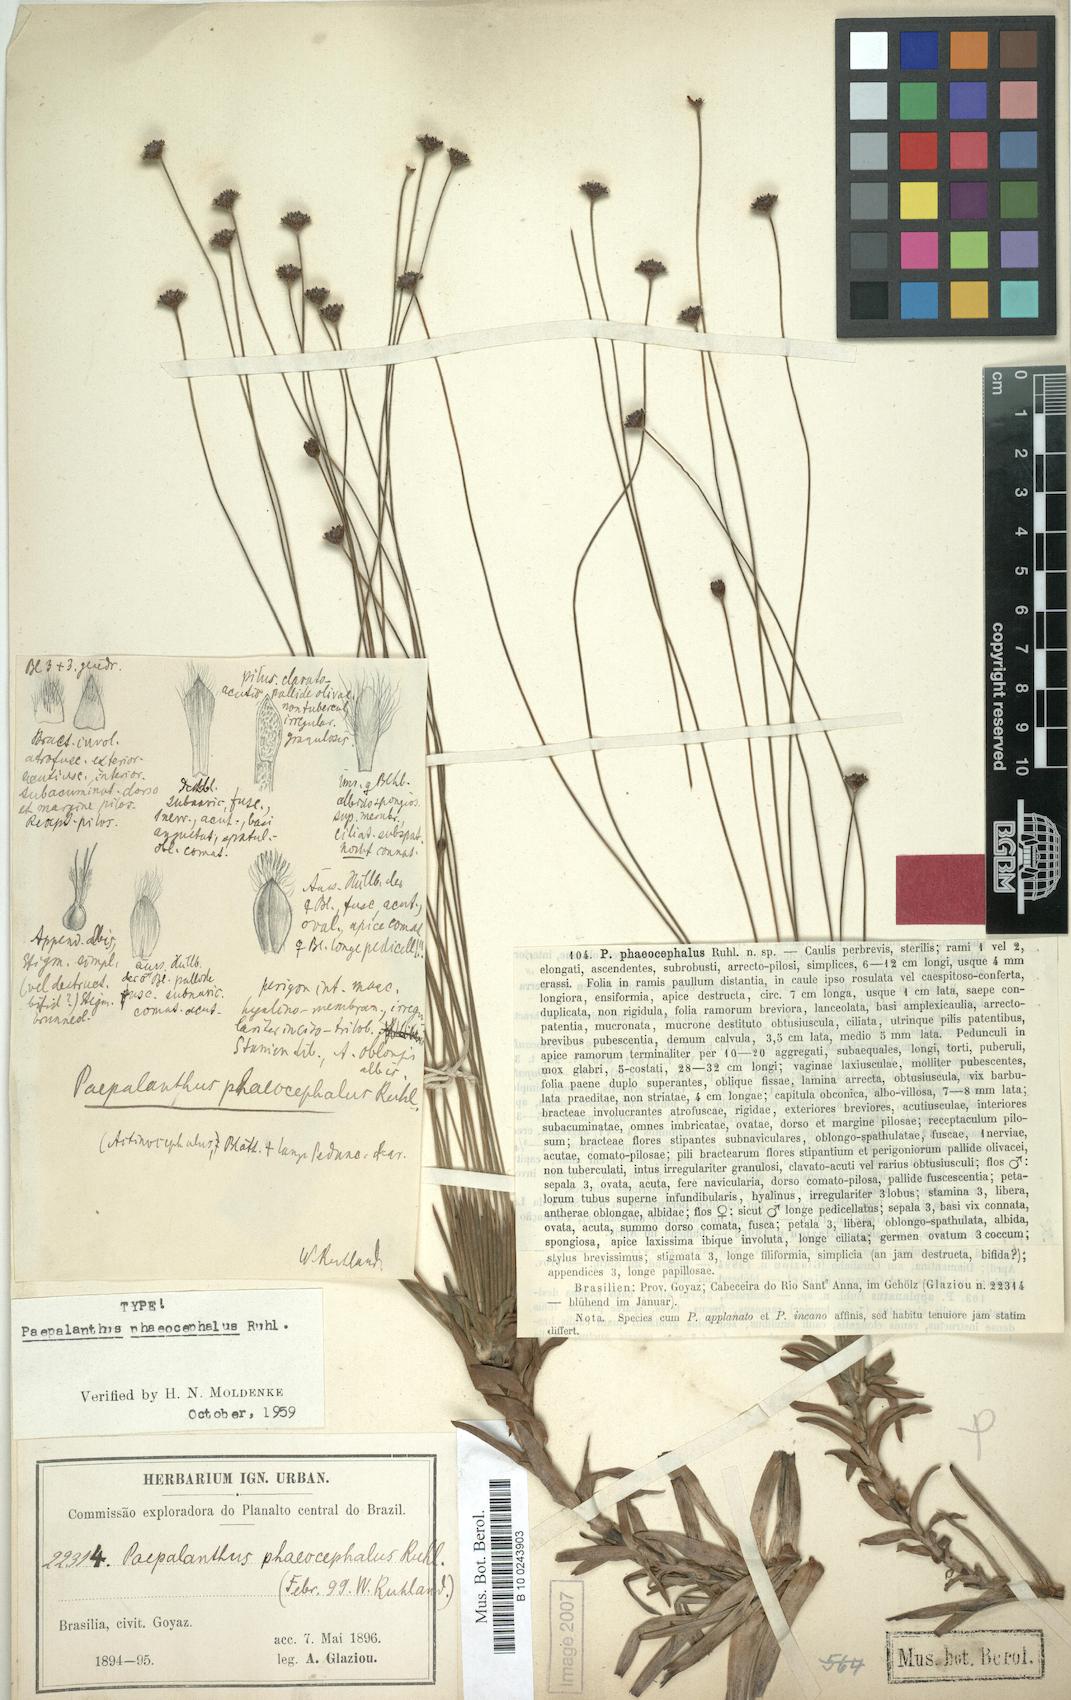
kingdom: Plantae
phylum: Tracheophyta
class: Liliopsida
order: Poales
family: Eriocaulaceae
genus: Paepalanthus
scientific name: Paepalanthus phaeocephalus
